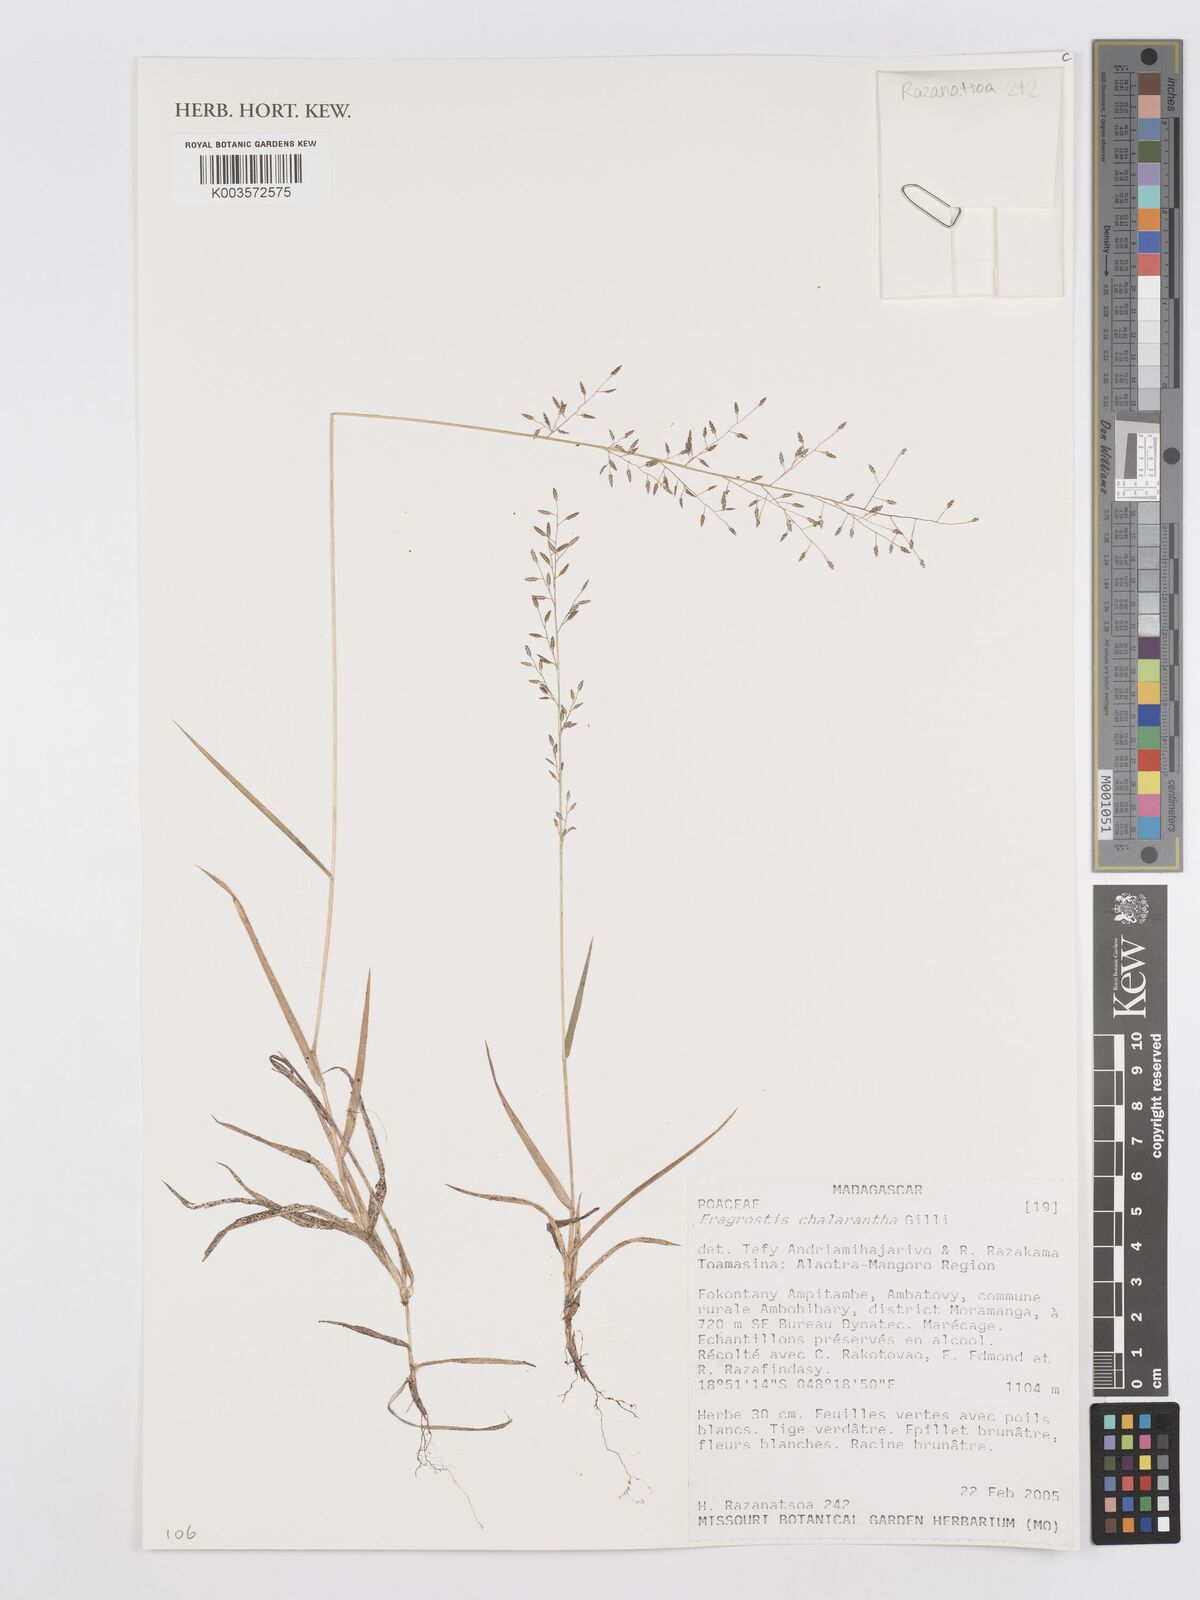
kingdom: Plantae
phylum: Tracheophyta
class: Liliopsida
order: Poales
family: Poaceae
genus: Eragrostis
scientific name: Eragrostis racemosa
